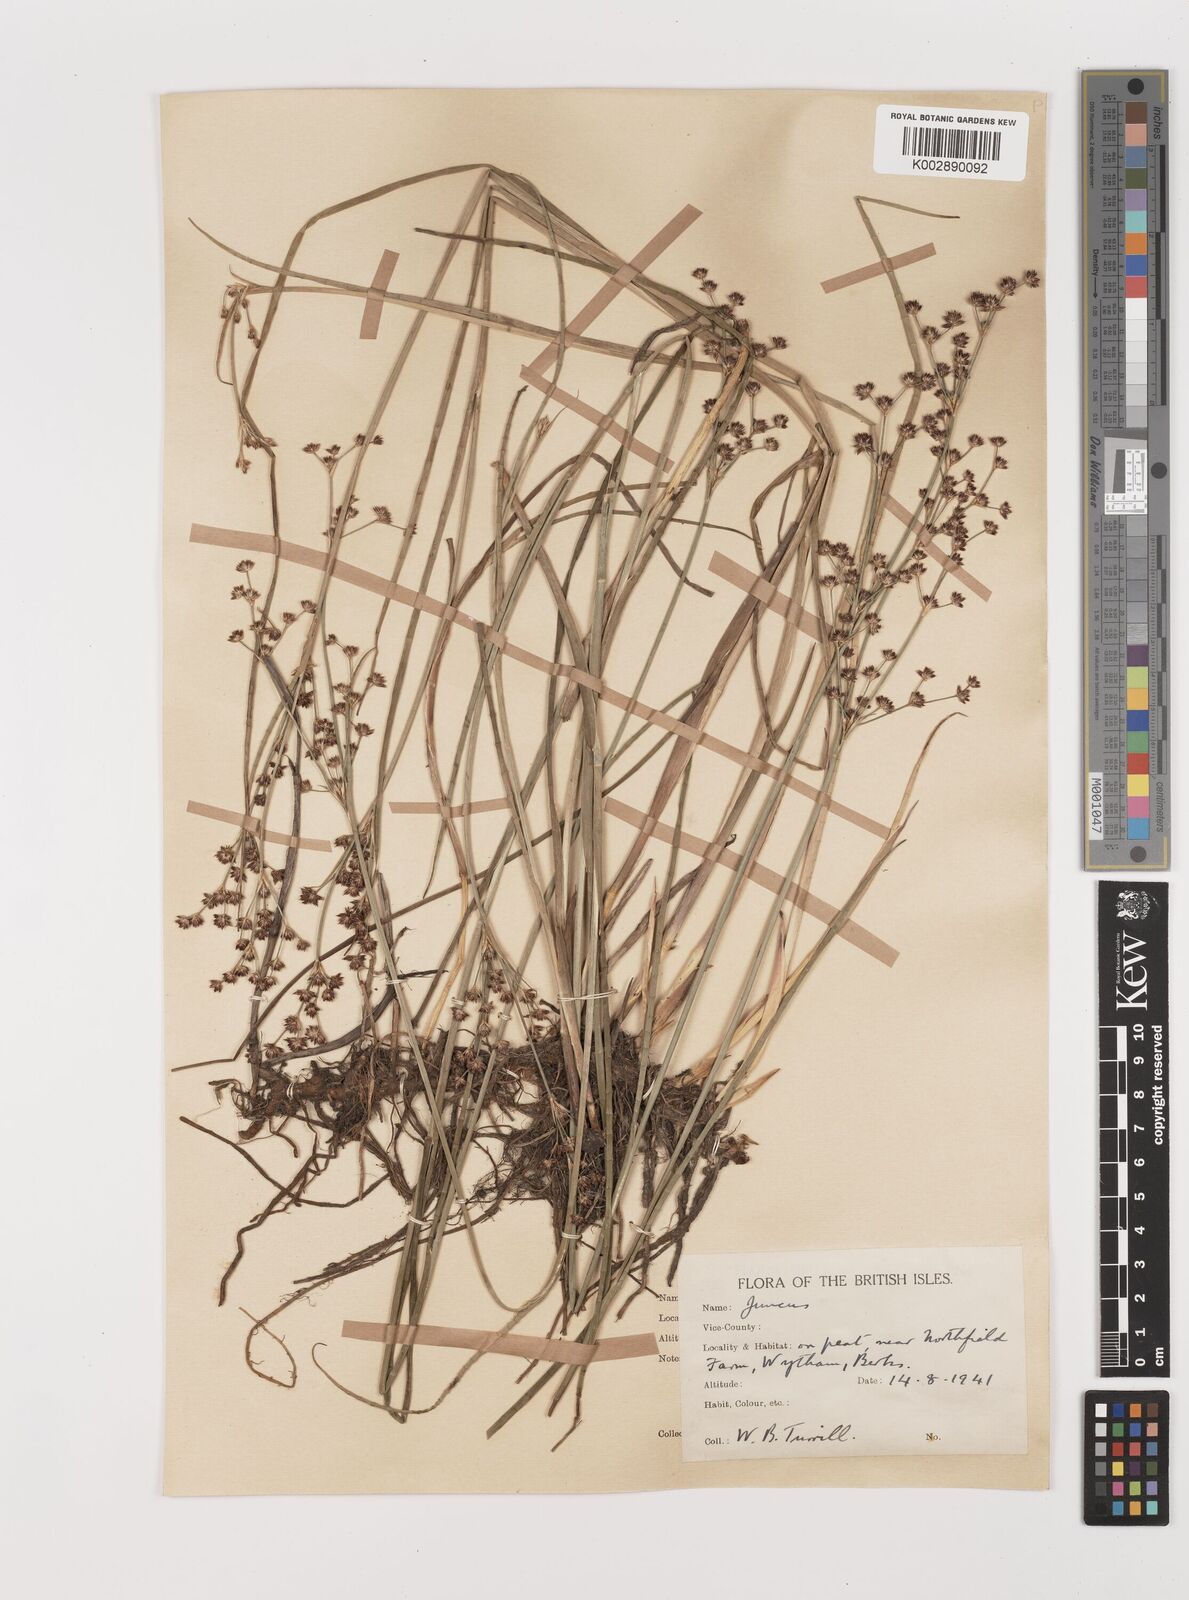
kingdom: Plantae
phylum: Tracheophyta
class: Liliopsida
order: Poales
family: Juncaceae
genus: Juncus
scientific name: Juncus articulatus
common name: Jointed rush
